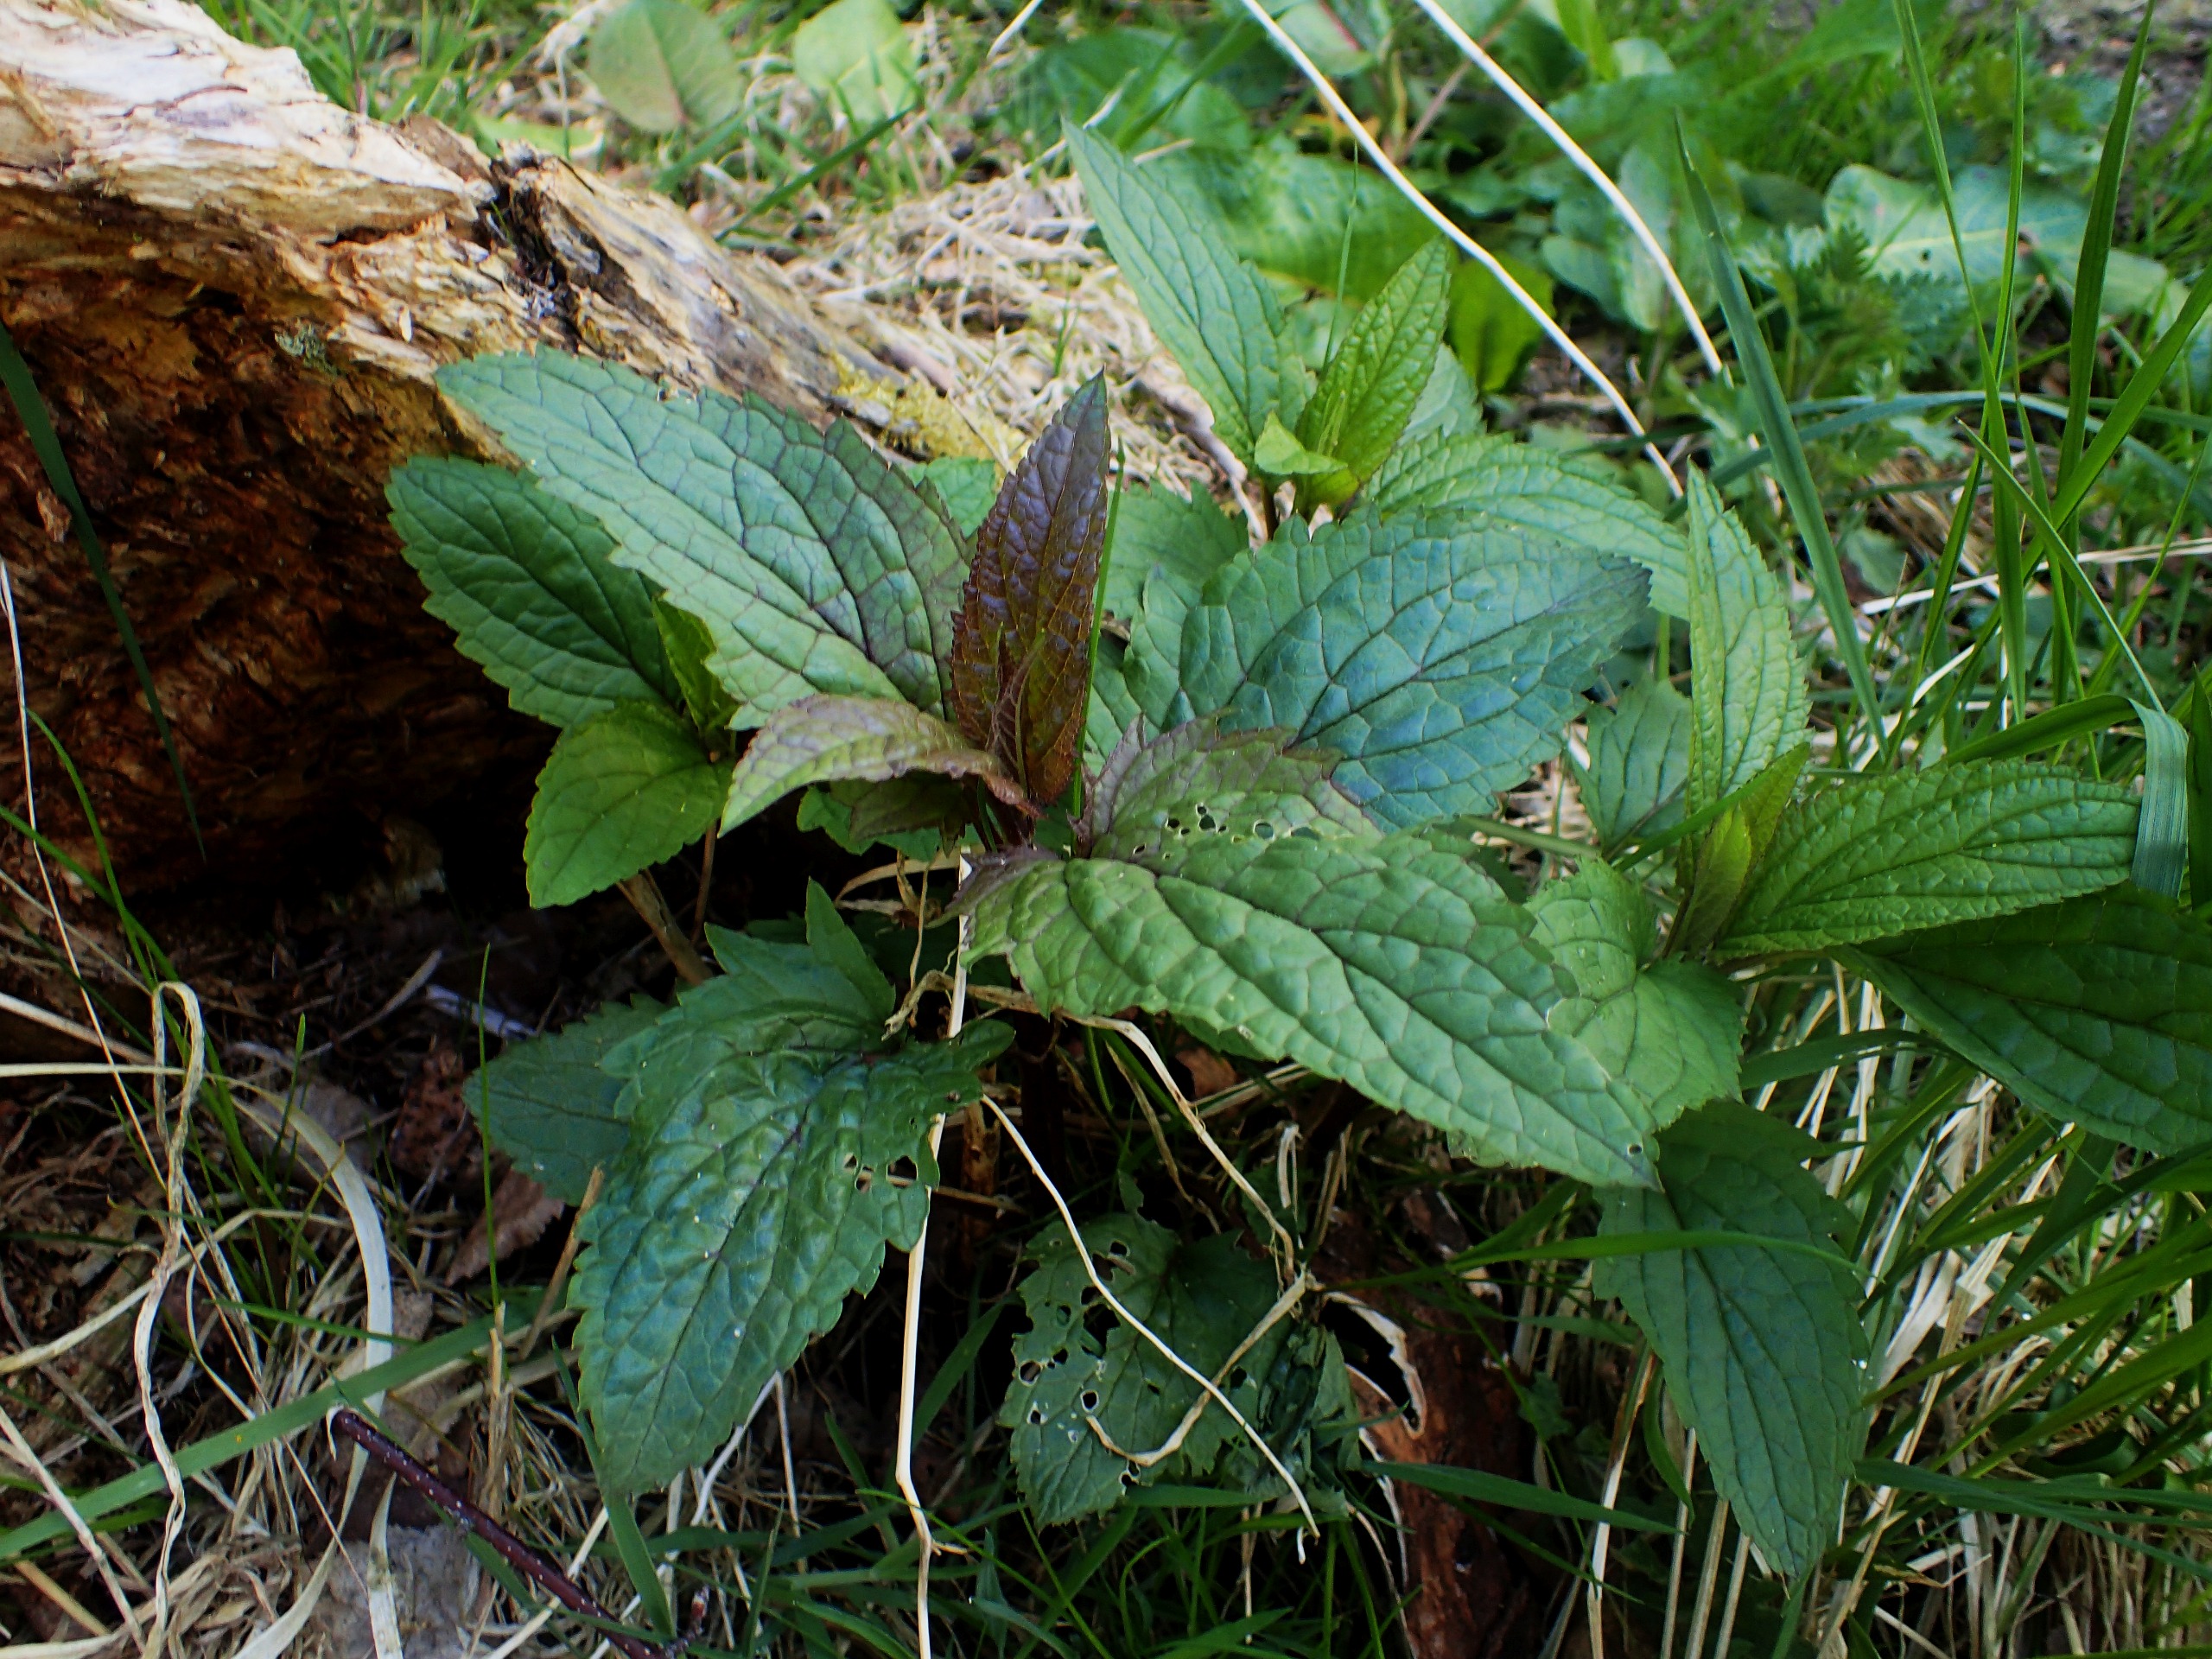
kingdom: Plantae
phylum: Tracheophyta
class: Magnoliopsida
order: Lamiales
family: Scrophulariaceae
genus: Scrophularia
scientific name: Scrophularia nodosa
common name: Knoldet brunrod
